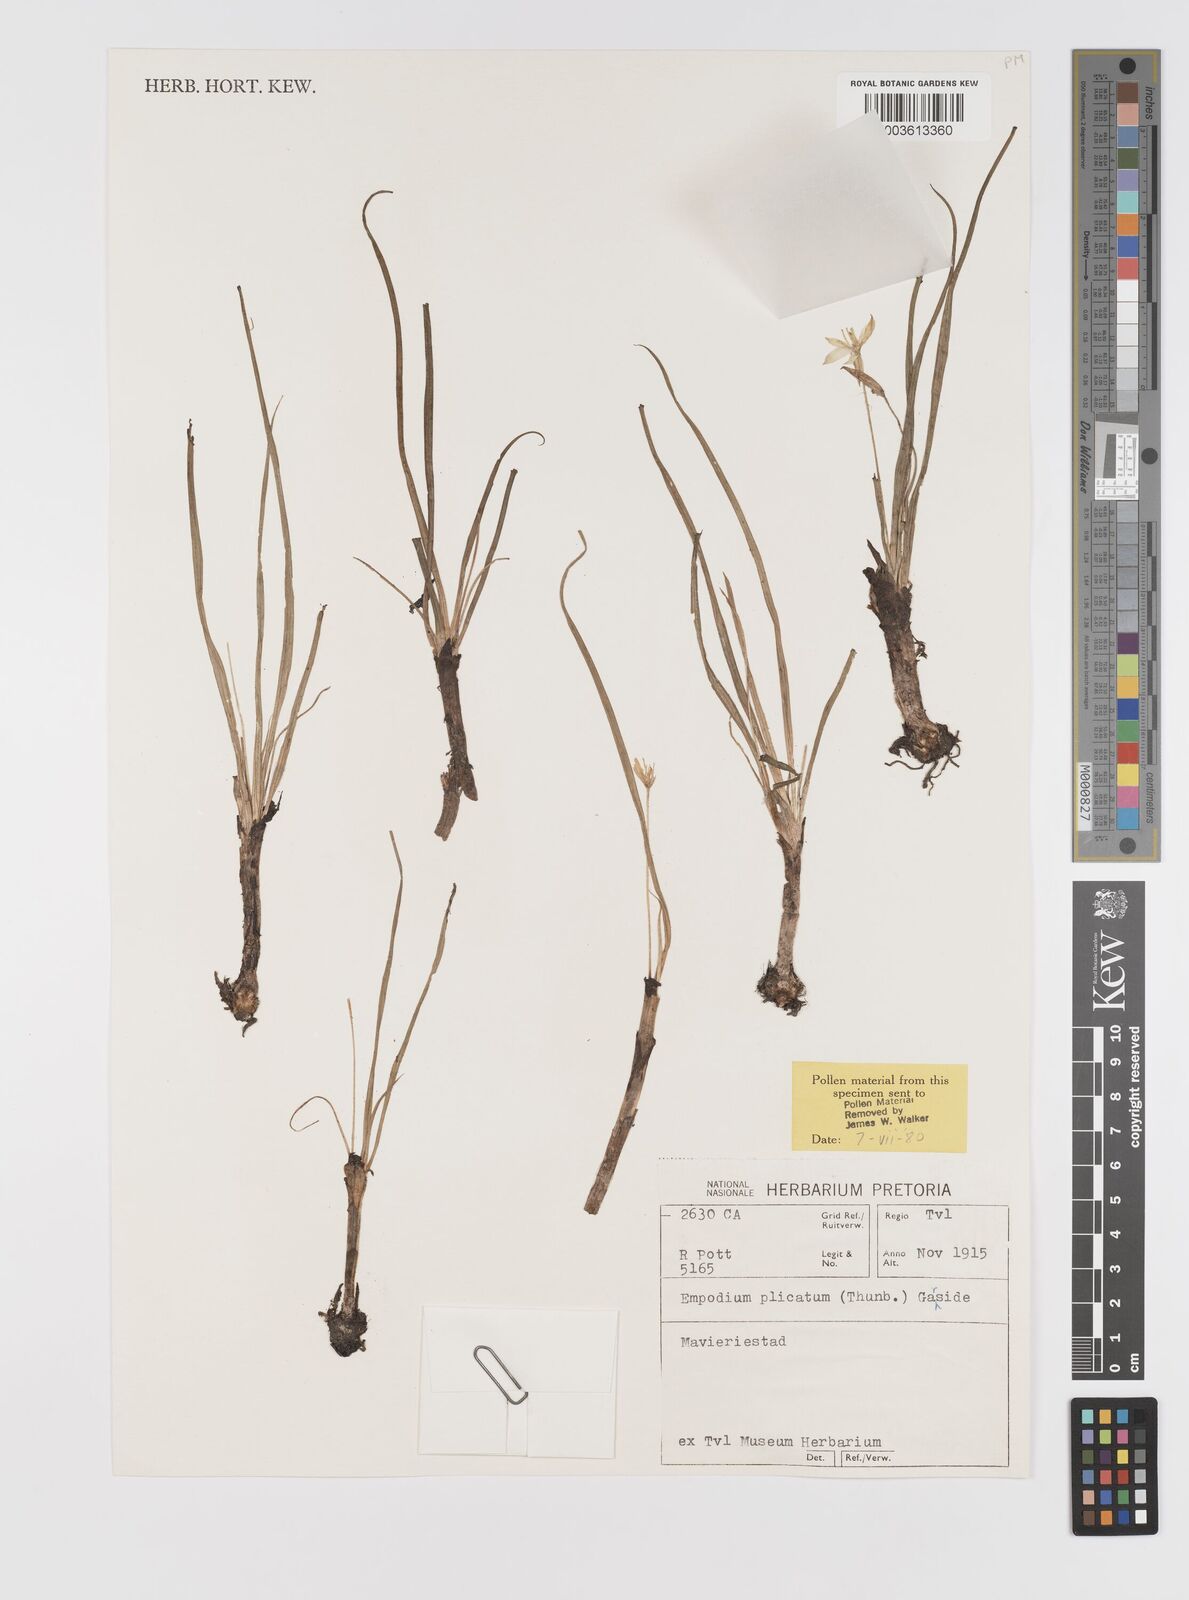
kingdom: Plantae
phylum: Tracheophyta
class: Liliopsida
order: Asparagales
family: Hypoxidaceae
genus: Empodium
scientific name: Empodium plicatum
